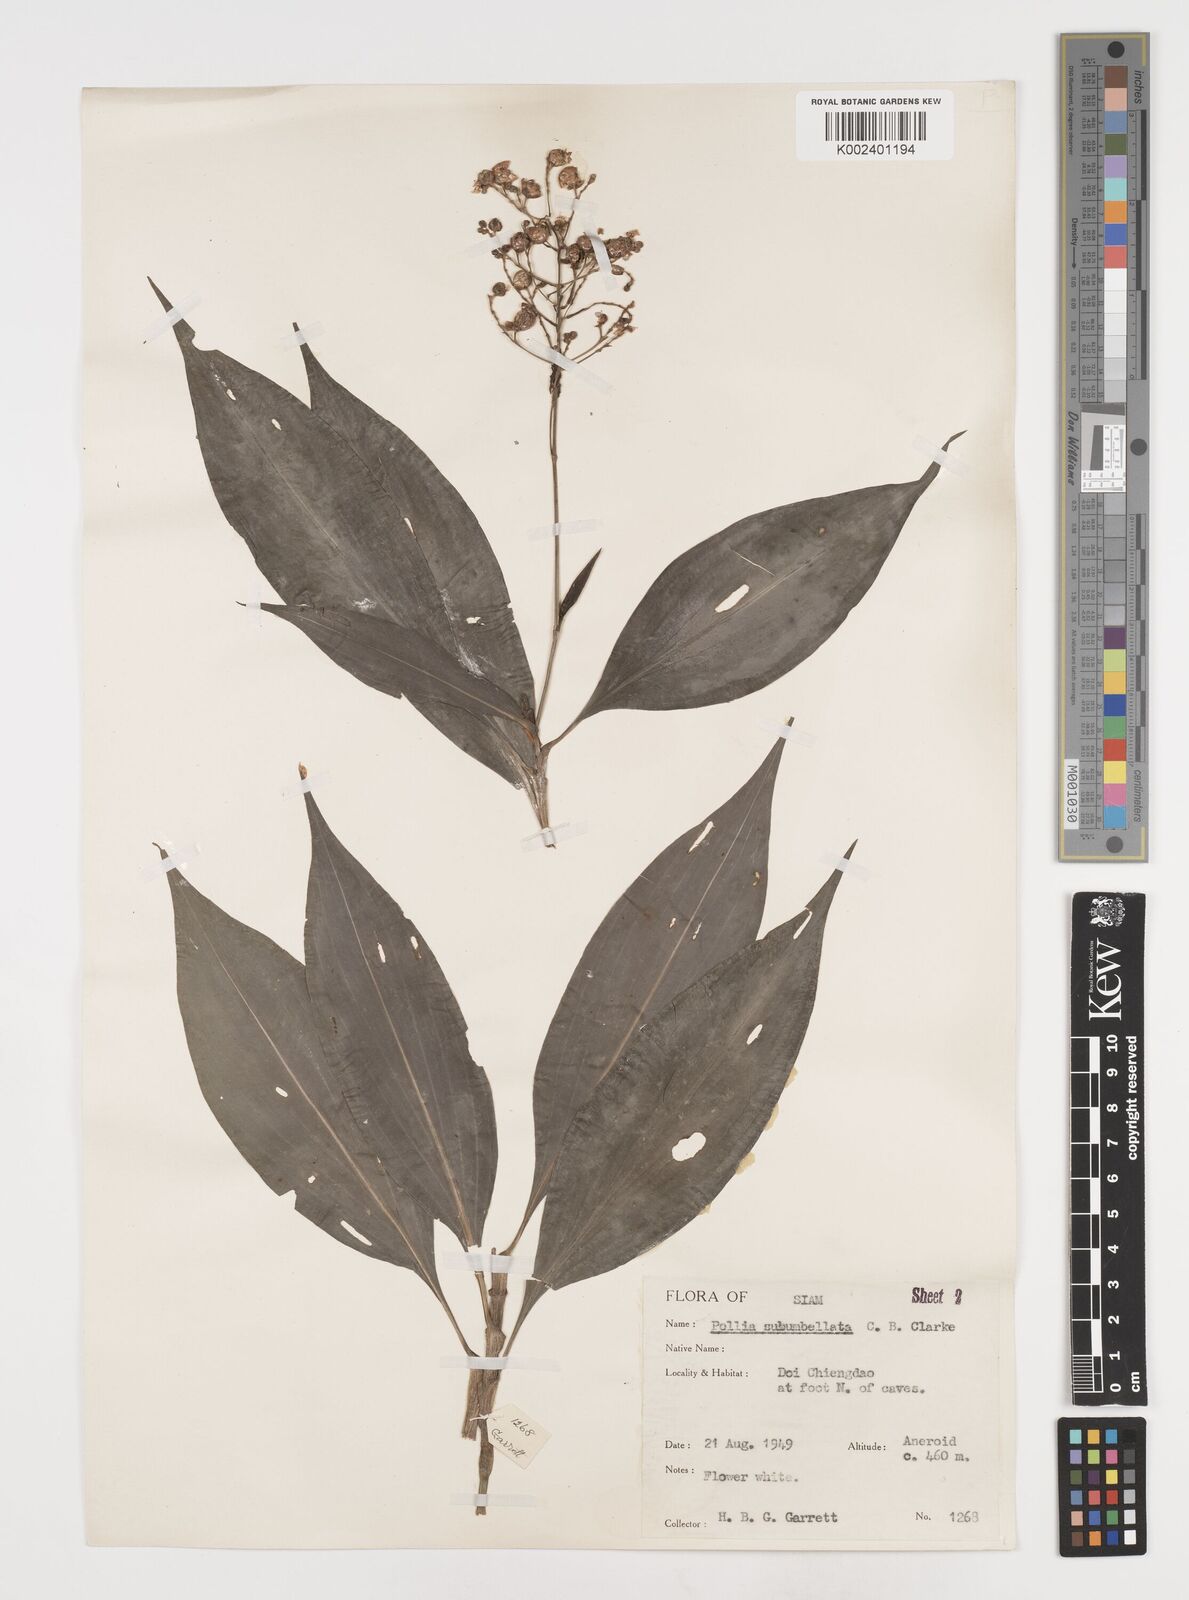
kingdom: Plantae
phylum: Tracheophyta
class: Liliopsida
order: Commelinales
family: Commelinaceae
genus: Pollia
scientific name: Pollia secundiflora
